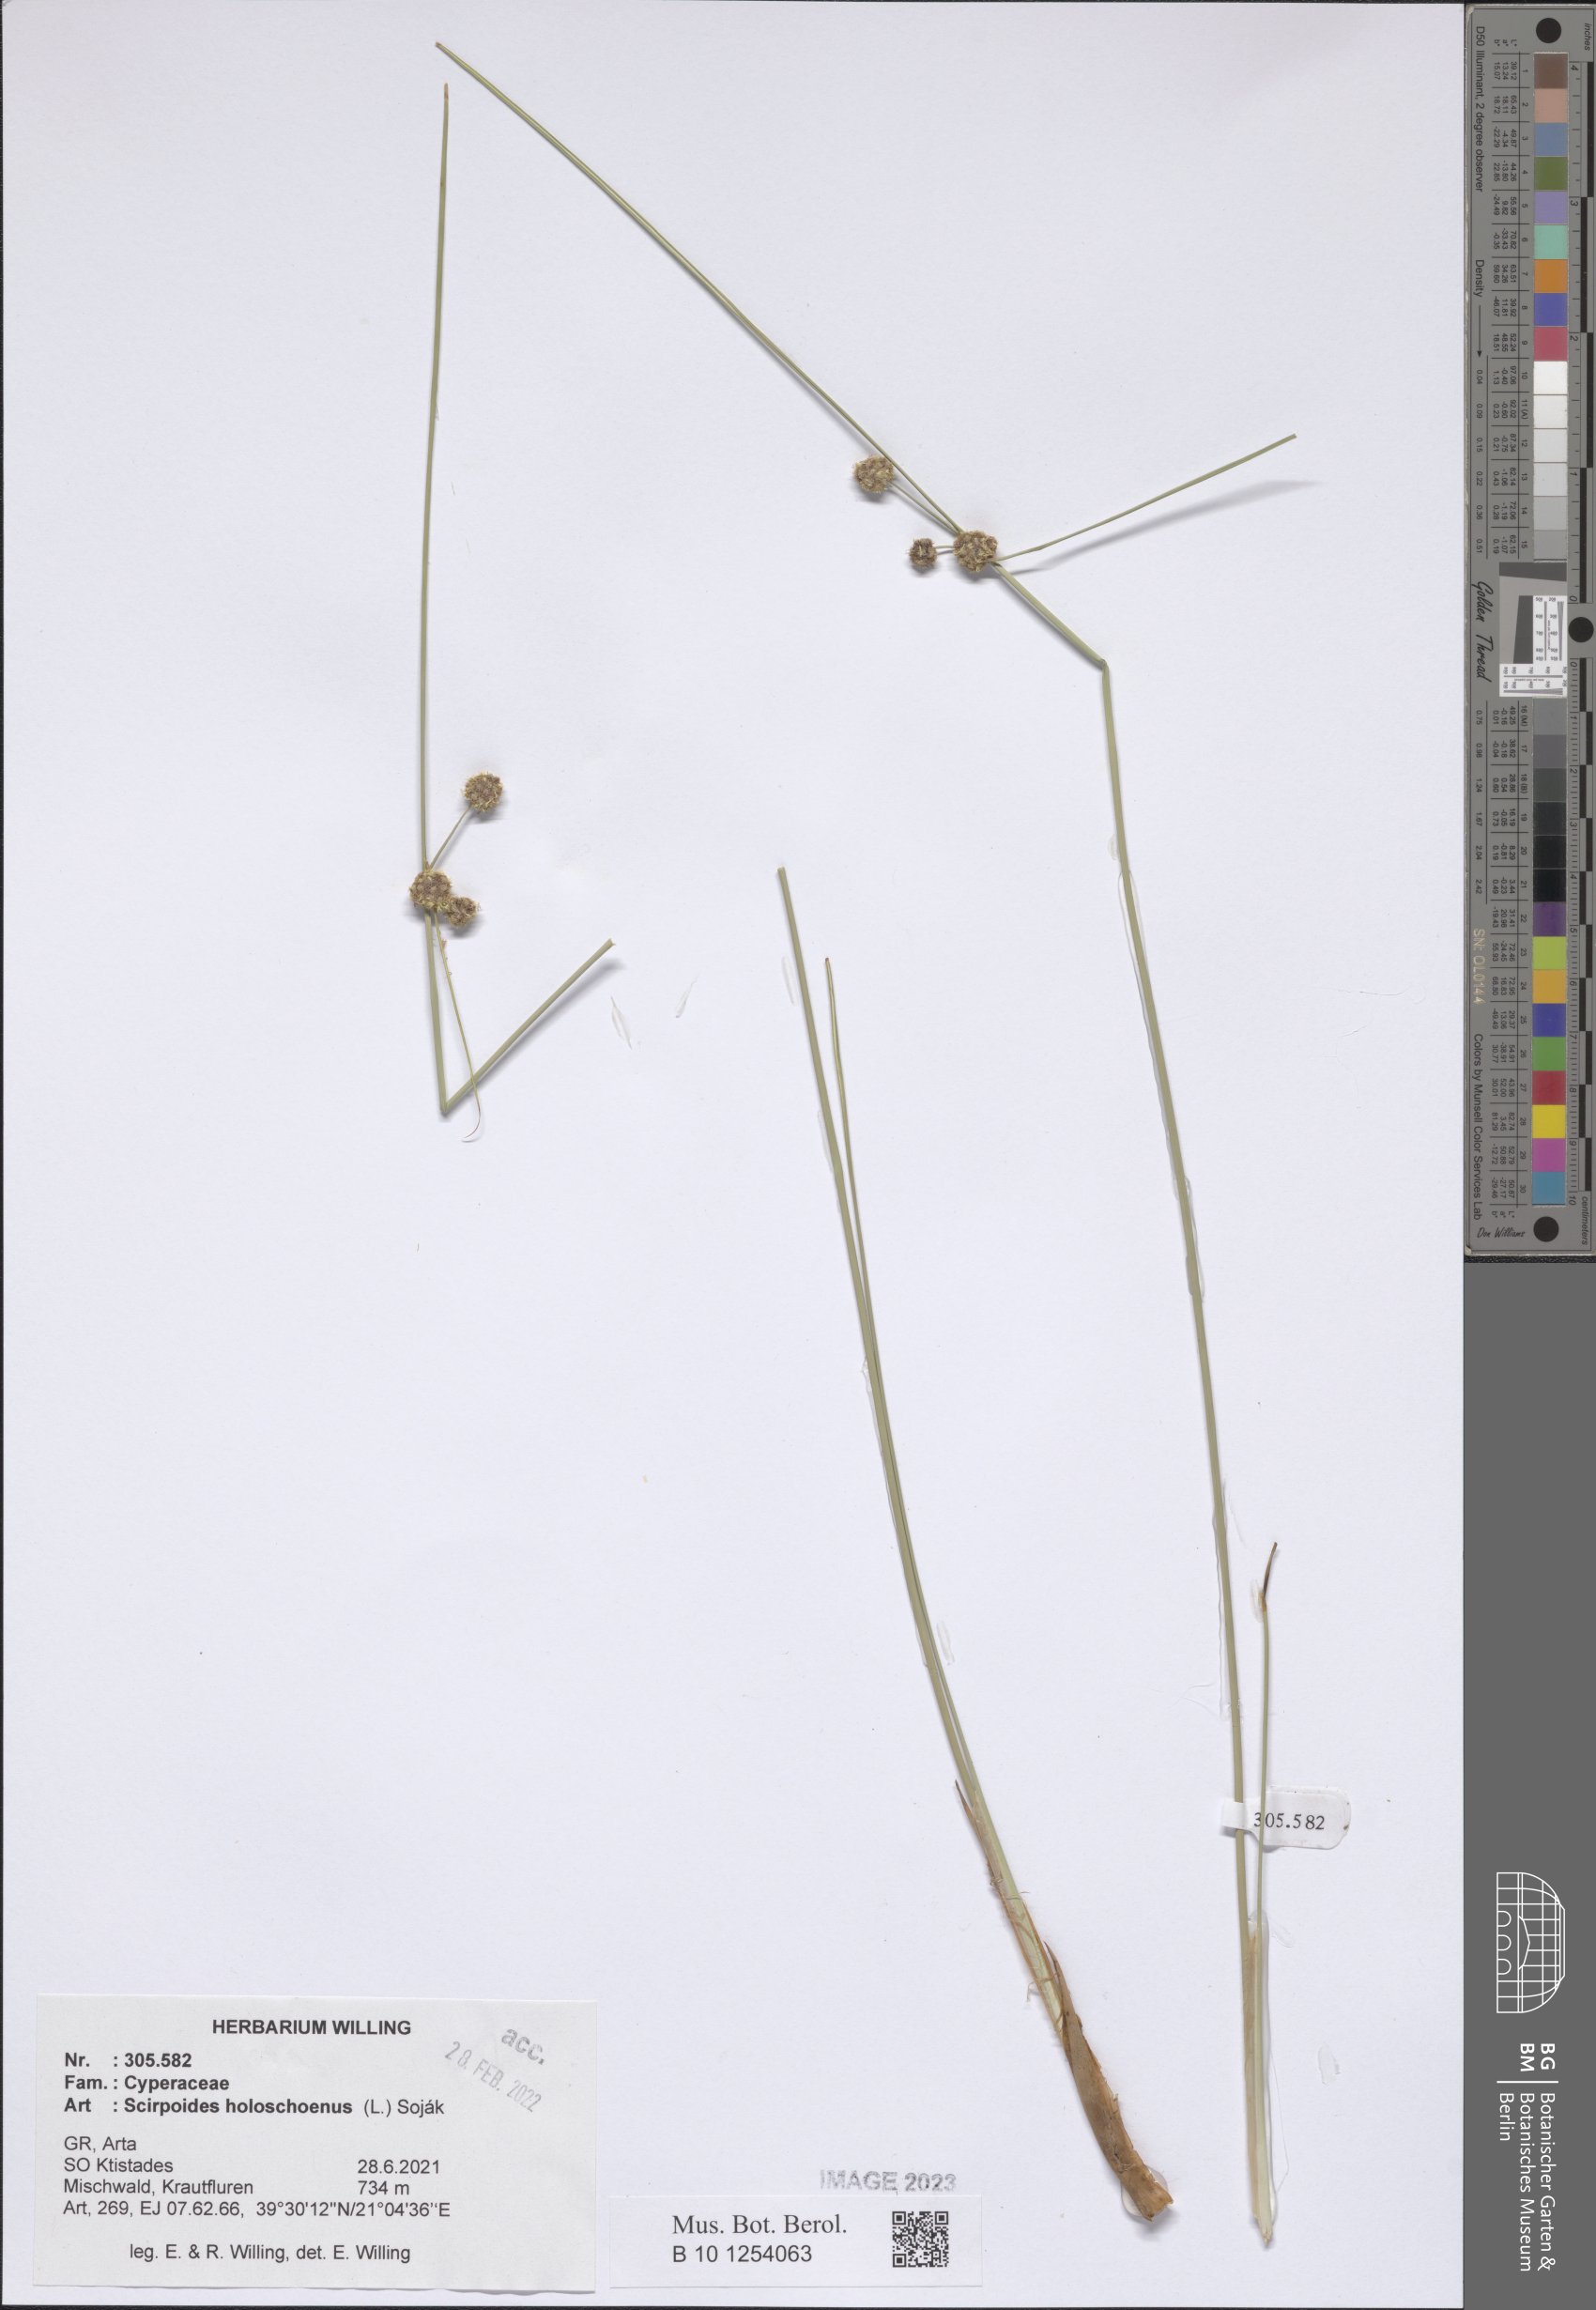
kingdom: Plantae
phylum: Tracheophyta
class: Liliopsida
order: Poales
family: Cyperaceae
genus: Scirpoides
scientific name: Scirpoides
